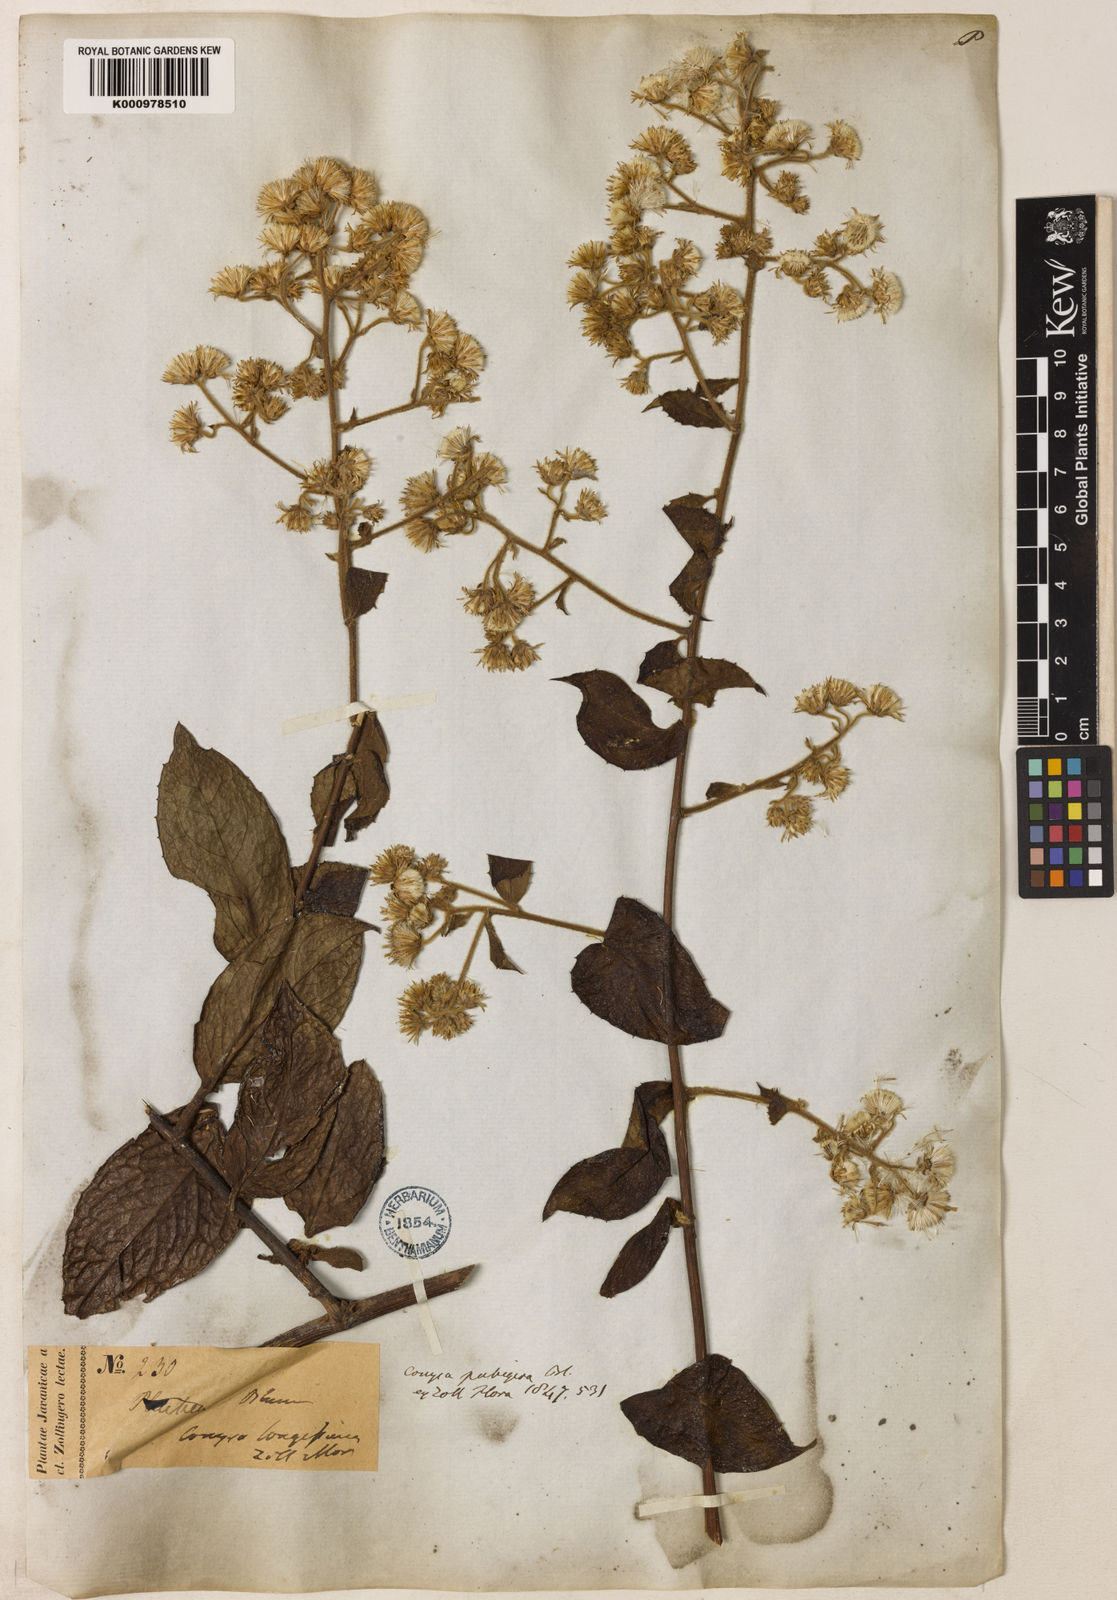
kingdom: Plantae
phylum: Tracheophyta
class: Magnoliopsida
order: Asterales
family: Asteraceae
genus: Blumea
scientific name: Blumea riparia
